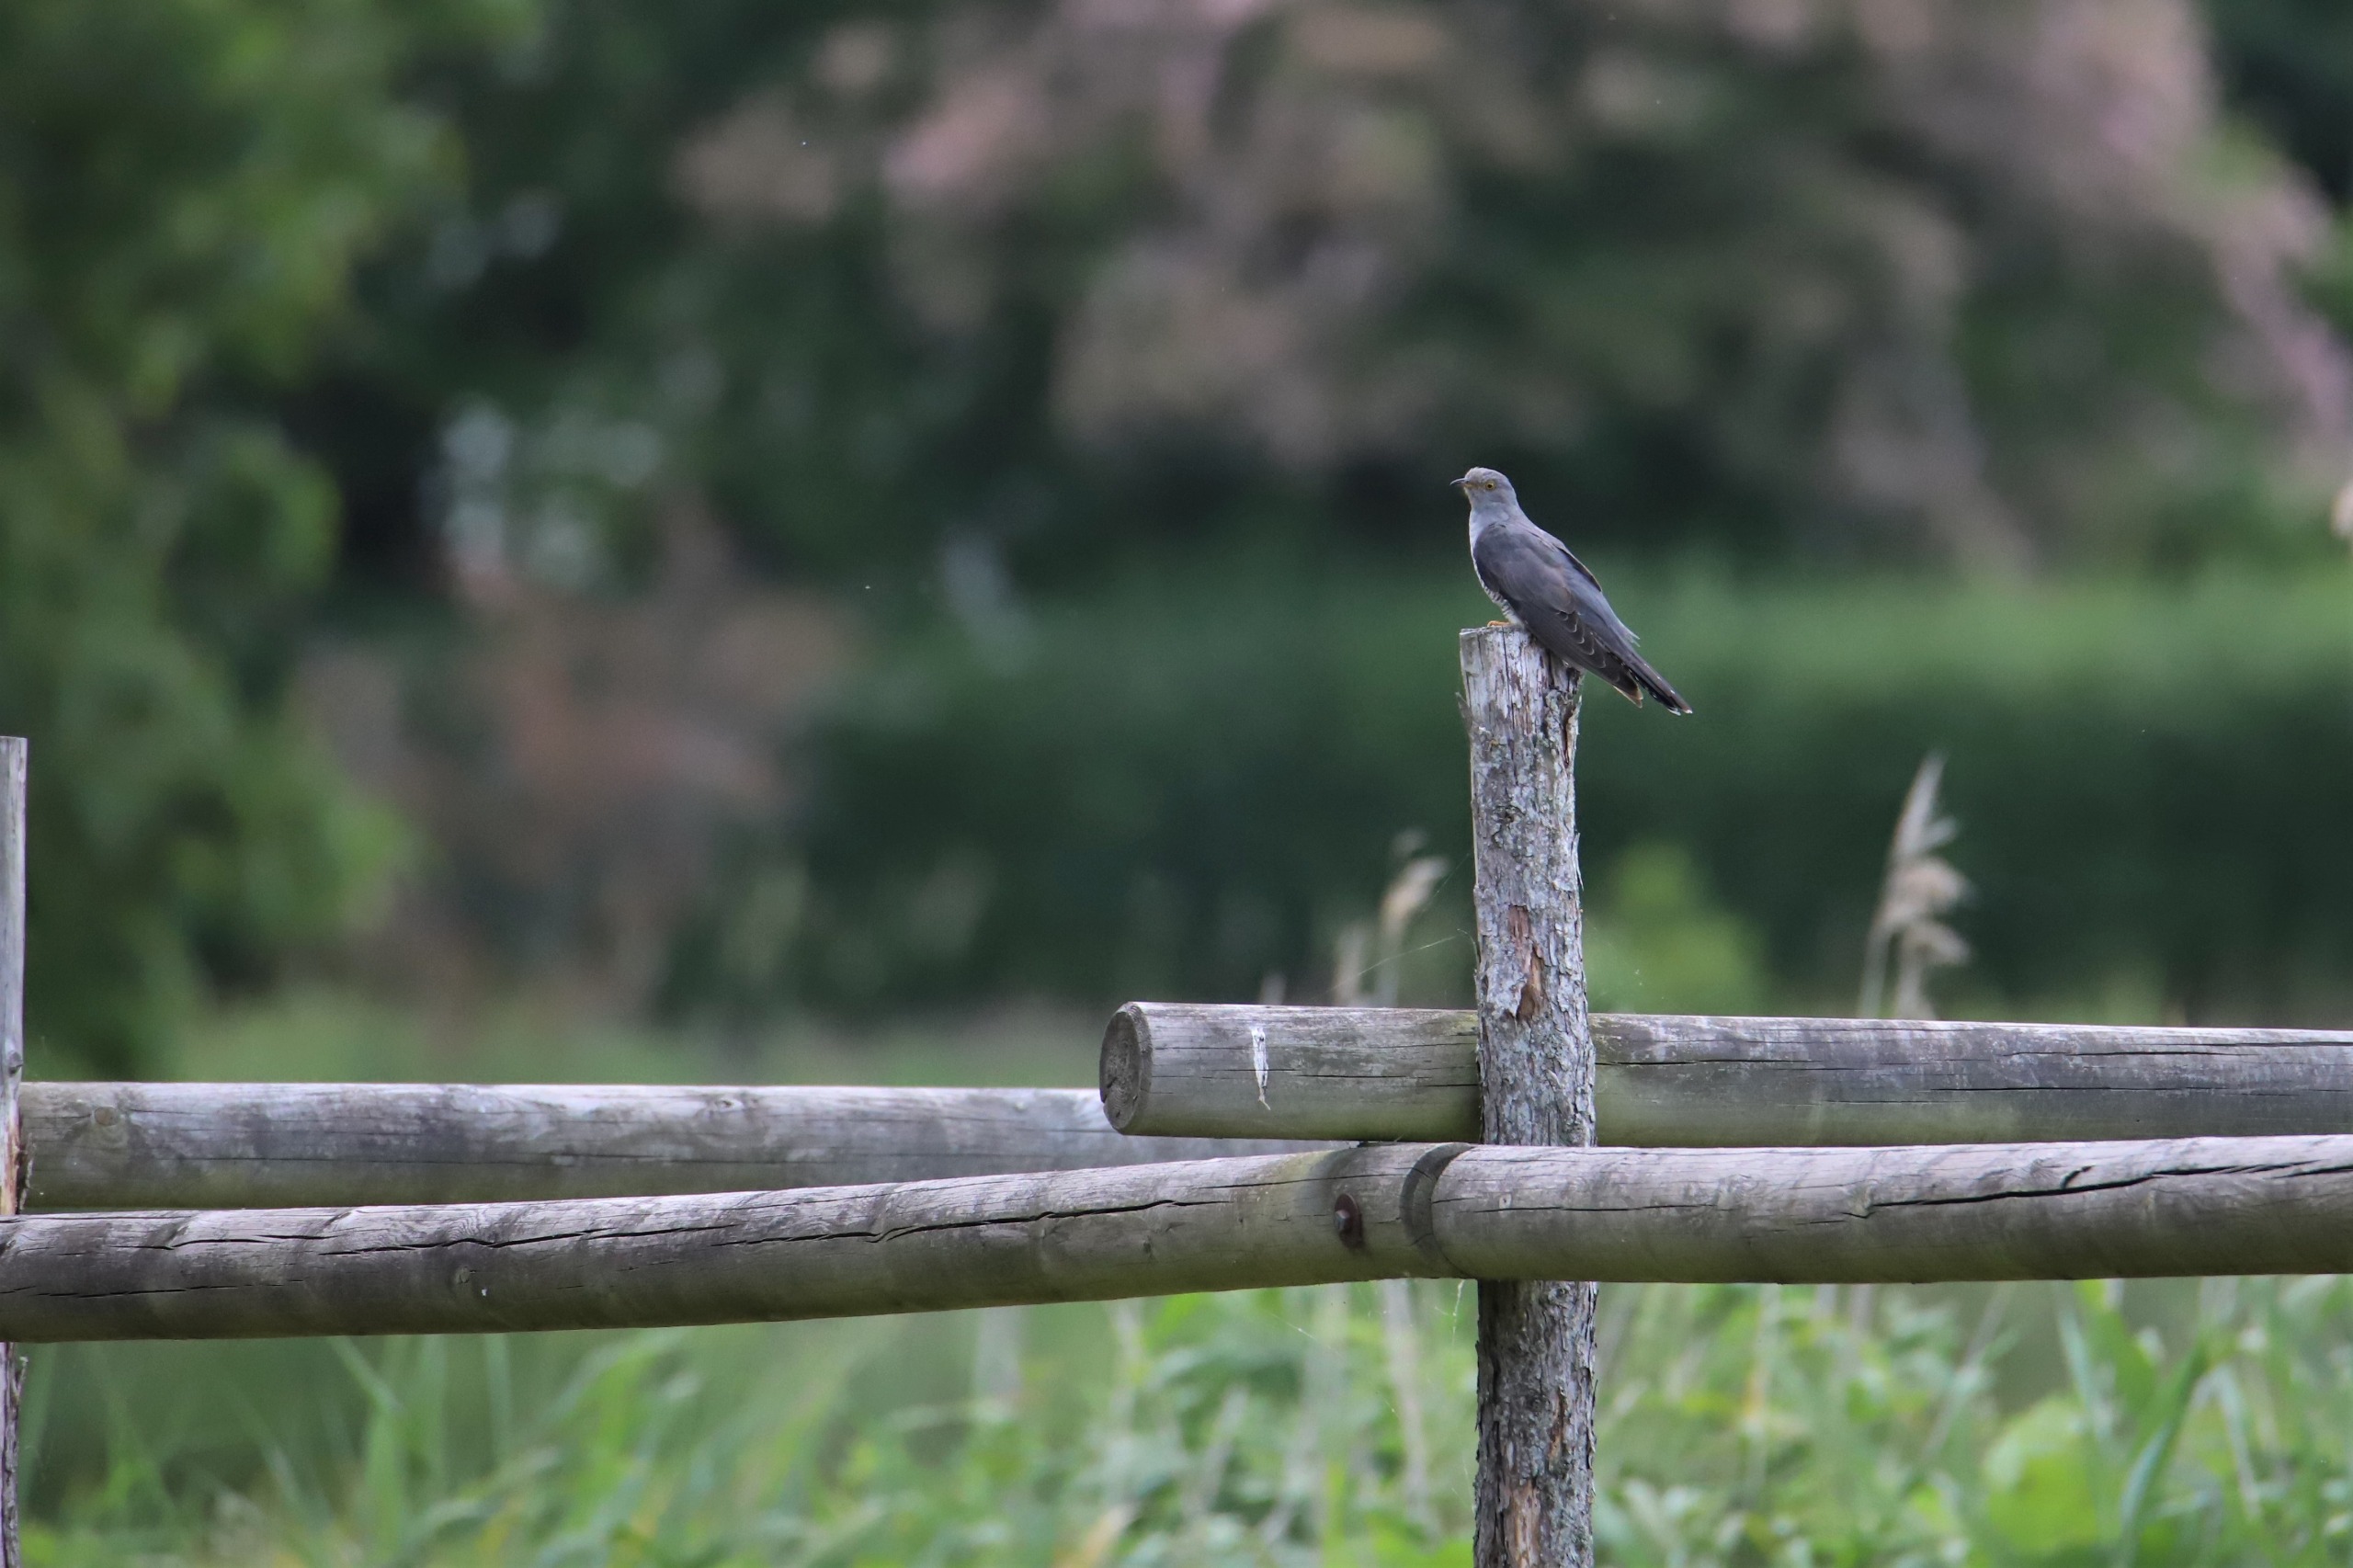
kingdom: Animalia
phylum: Chordata
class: Aves
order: Cuculiformes
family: Cuculidae
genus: Cuculus
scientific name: Cuculus canorus
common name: Gøg
